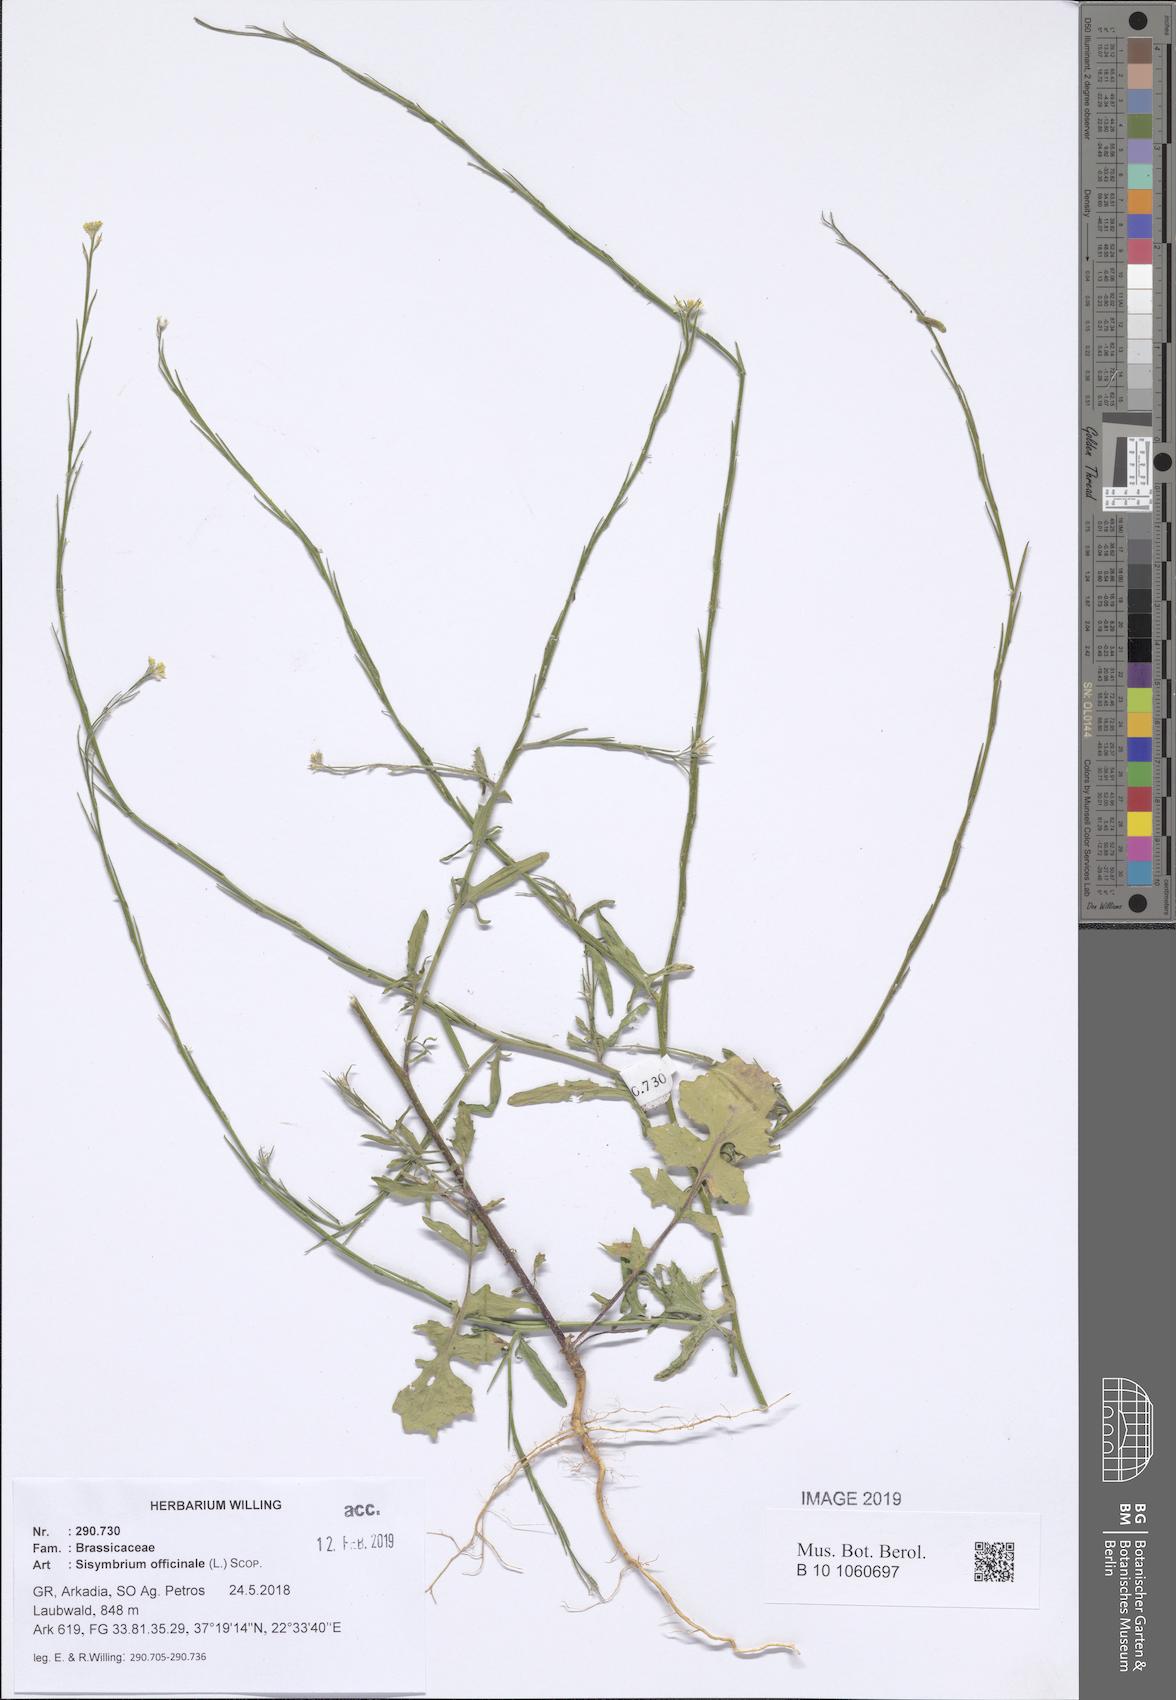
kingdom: Plantae
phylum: Tracheophyta
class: Magnoliopsida
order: Brassicales
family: Brassicaceae
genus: Sisymbrium
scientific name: Sisymbrium officinale
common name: Hedge mustard
